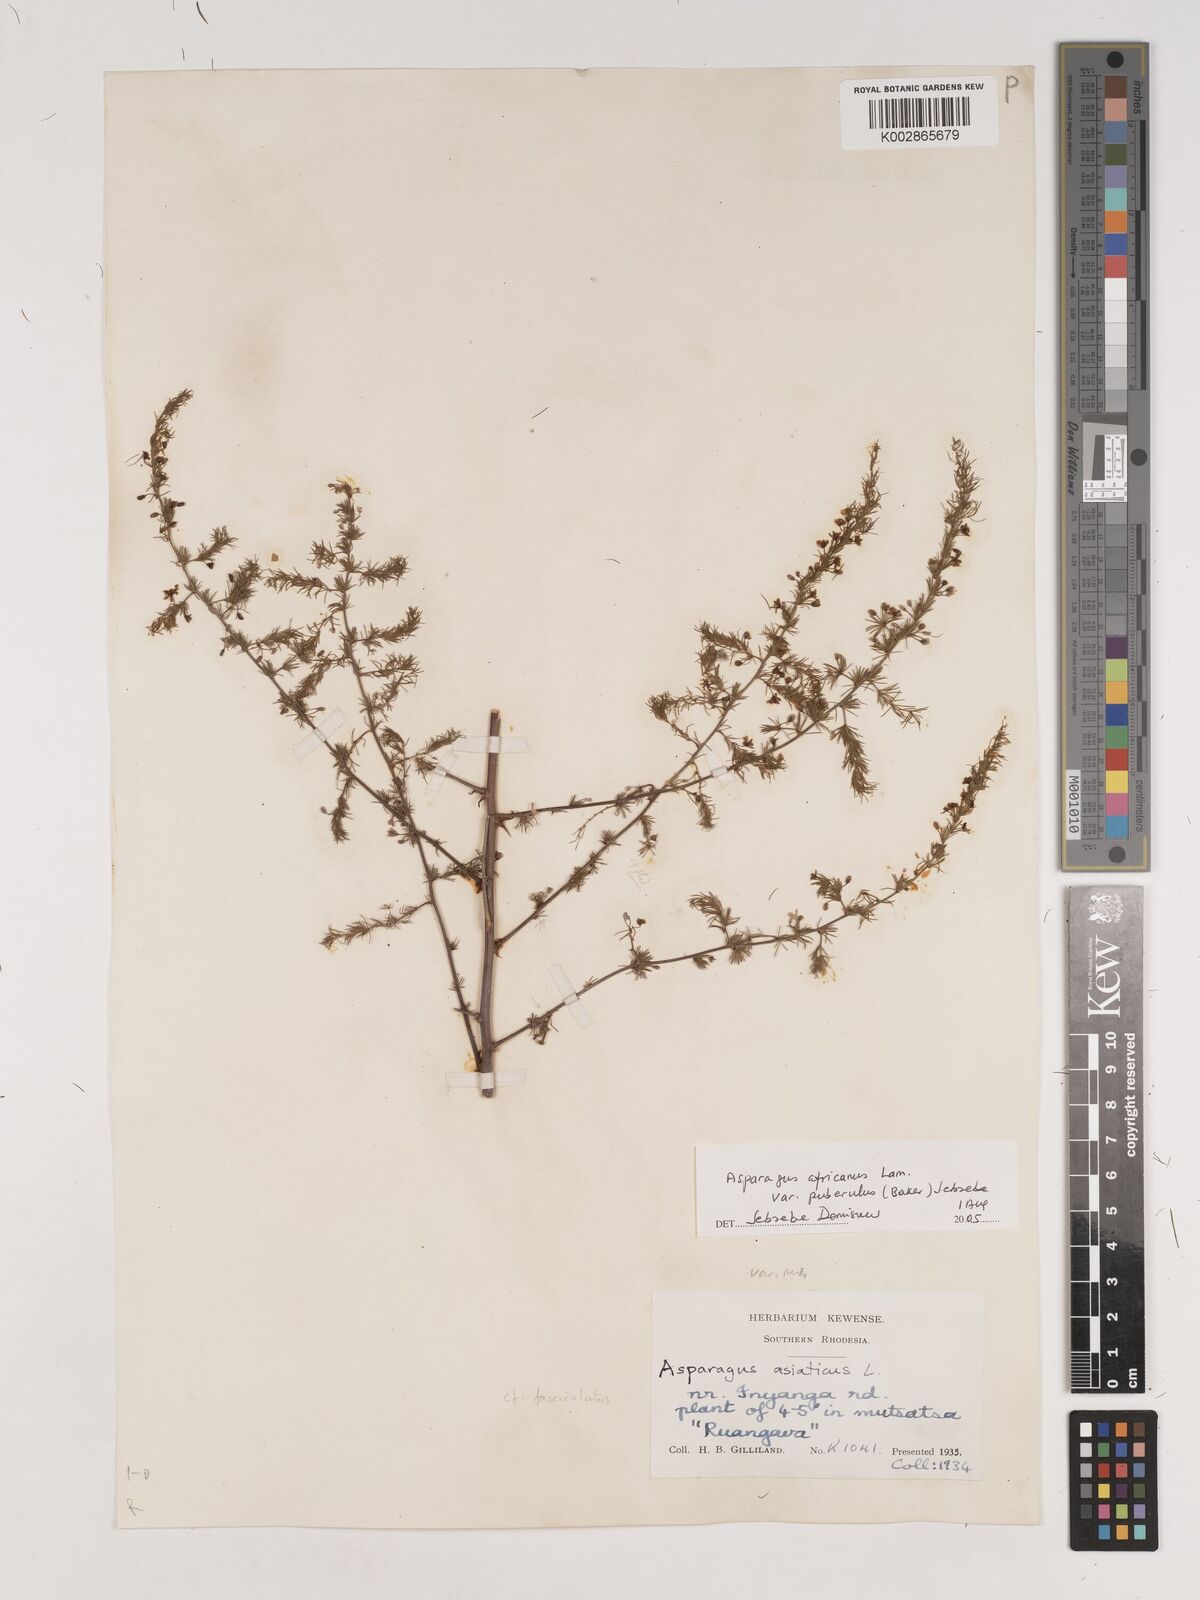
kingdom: Plantae
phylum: Tracheophyta
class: Liliopsida
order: Asparagales
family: Asparagaceae
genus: Asparagus
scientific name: Asparagus
